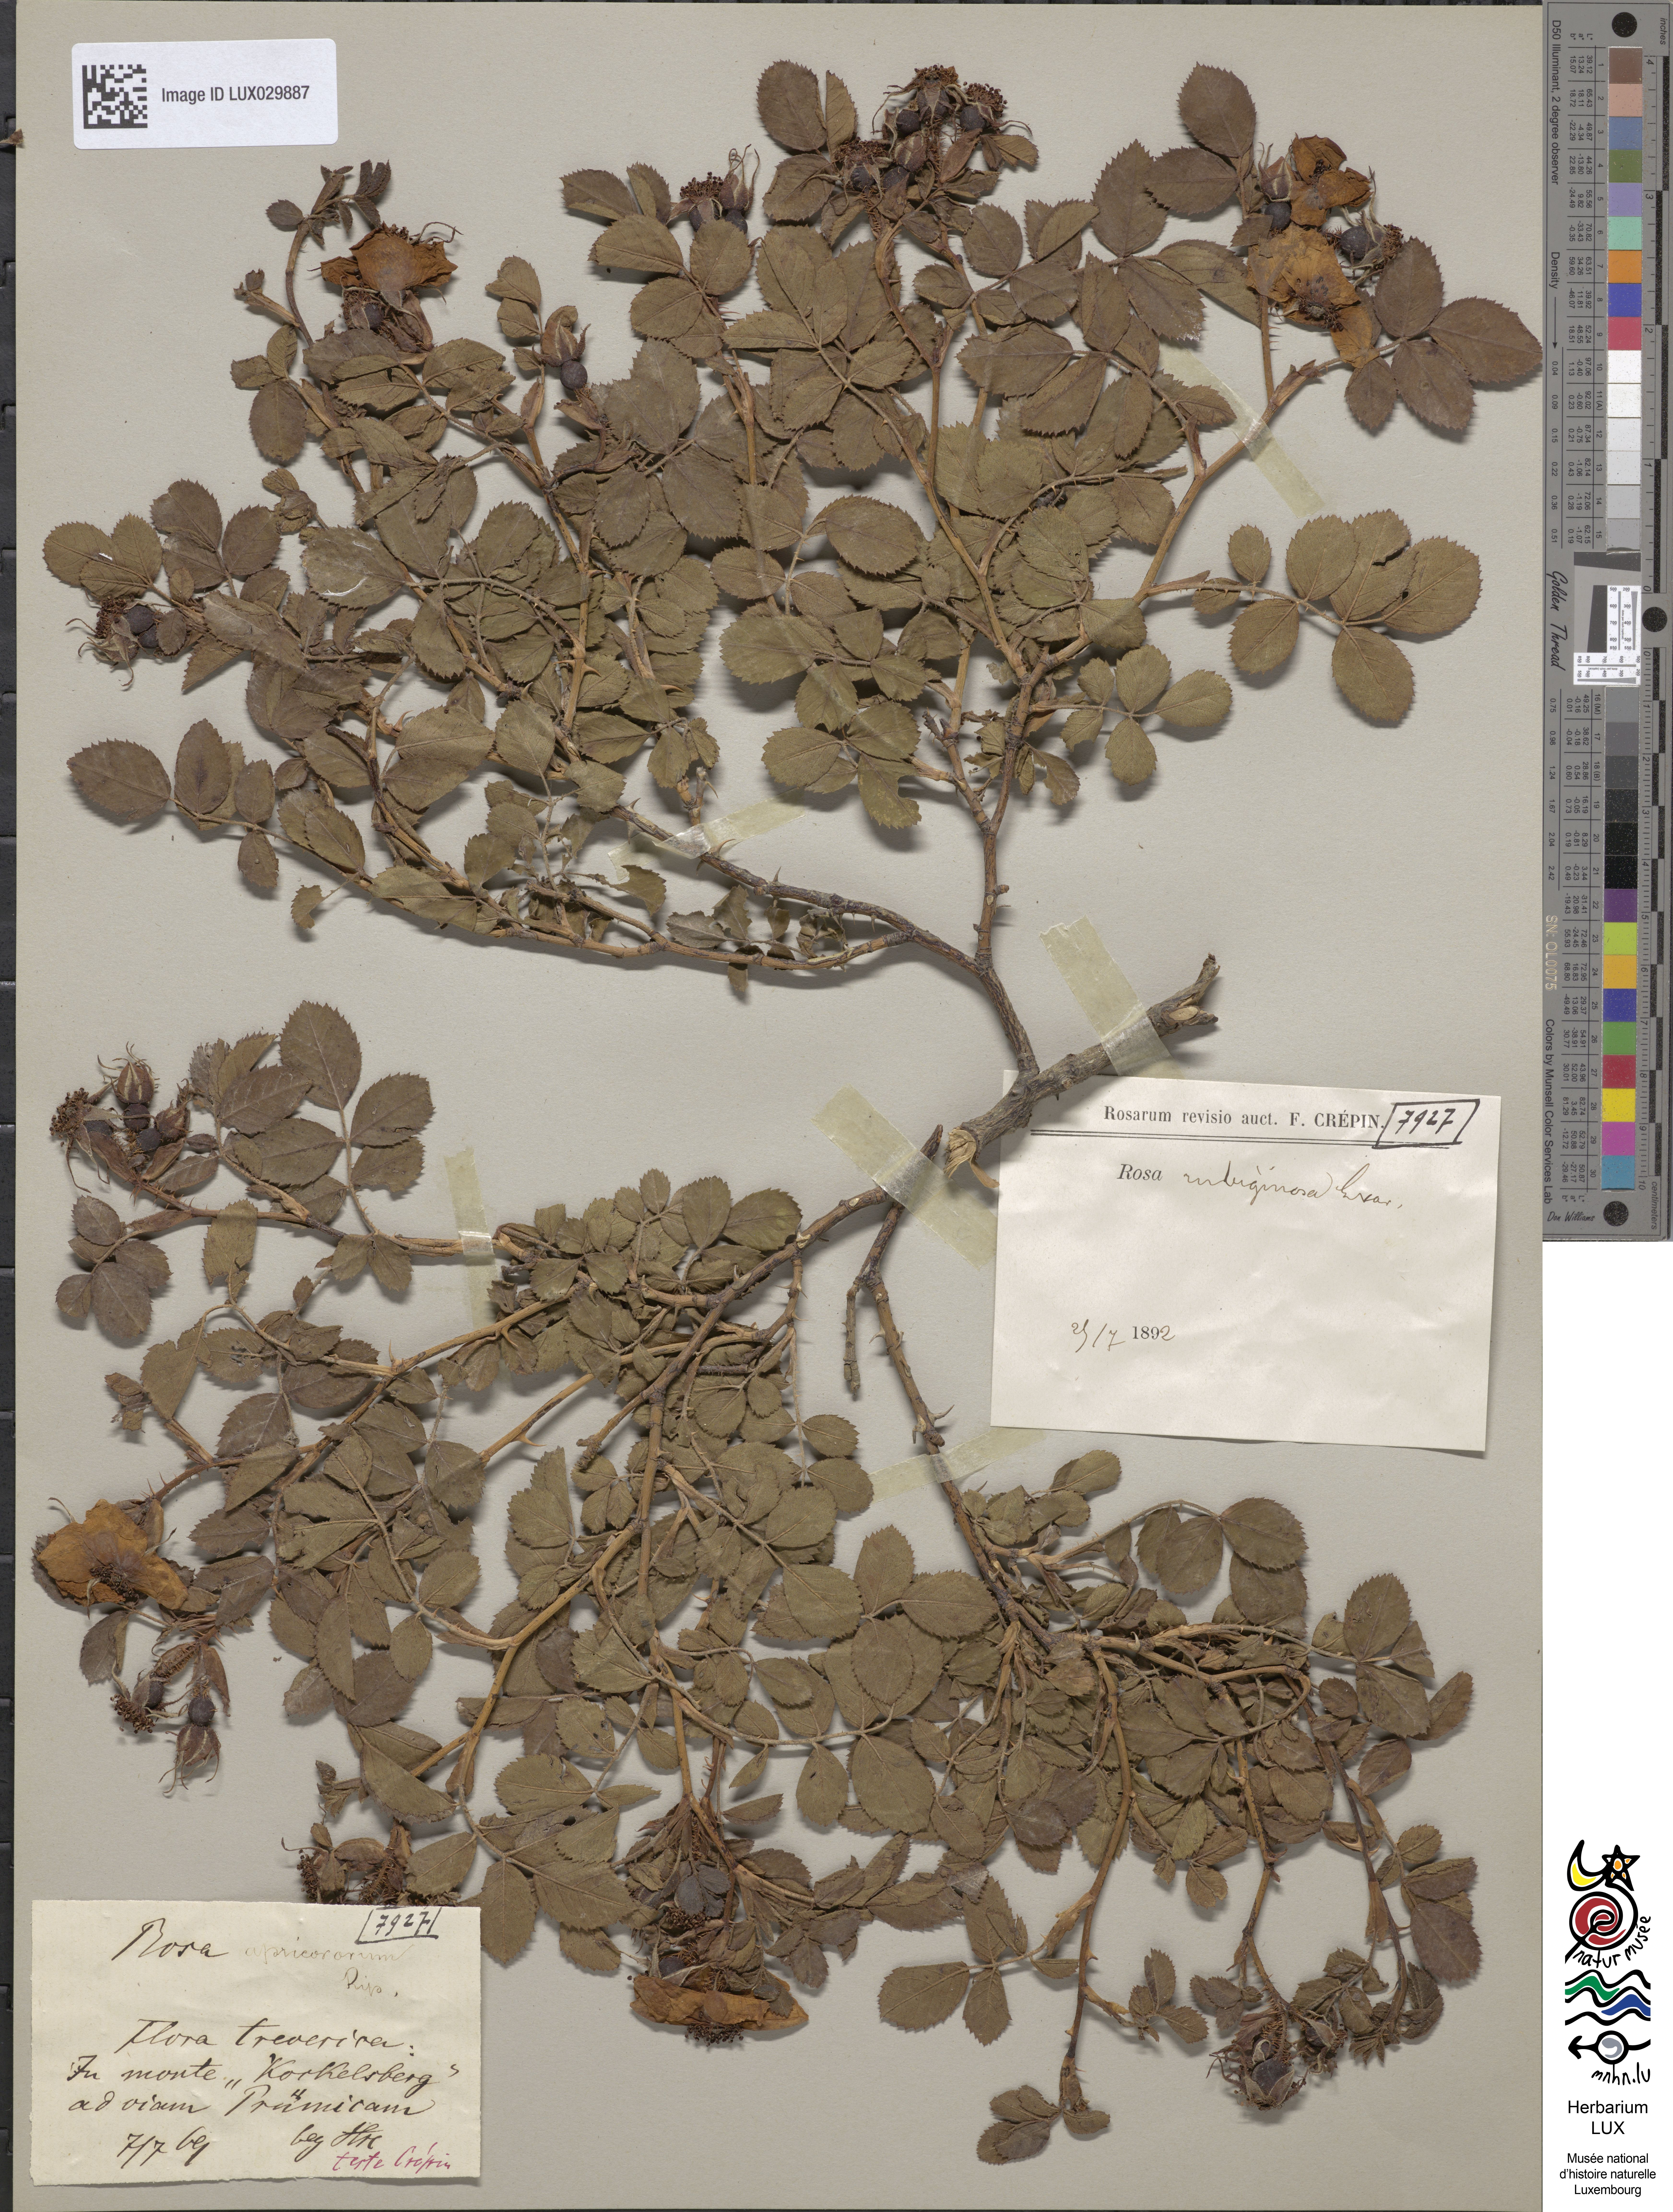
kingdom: Plantae
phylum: Tracheophyta
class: Magnoliopsida
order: Rosales
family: Rosaceae
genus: Rosa
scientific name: Rosa rubiginosa
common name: Sweet-briar
